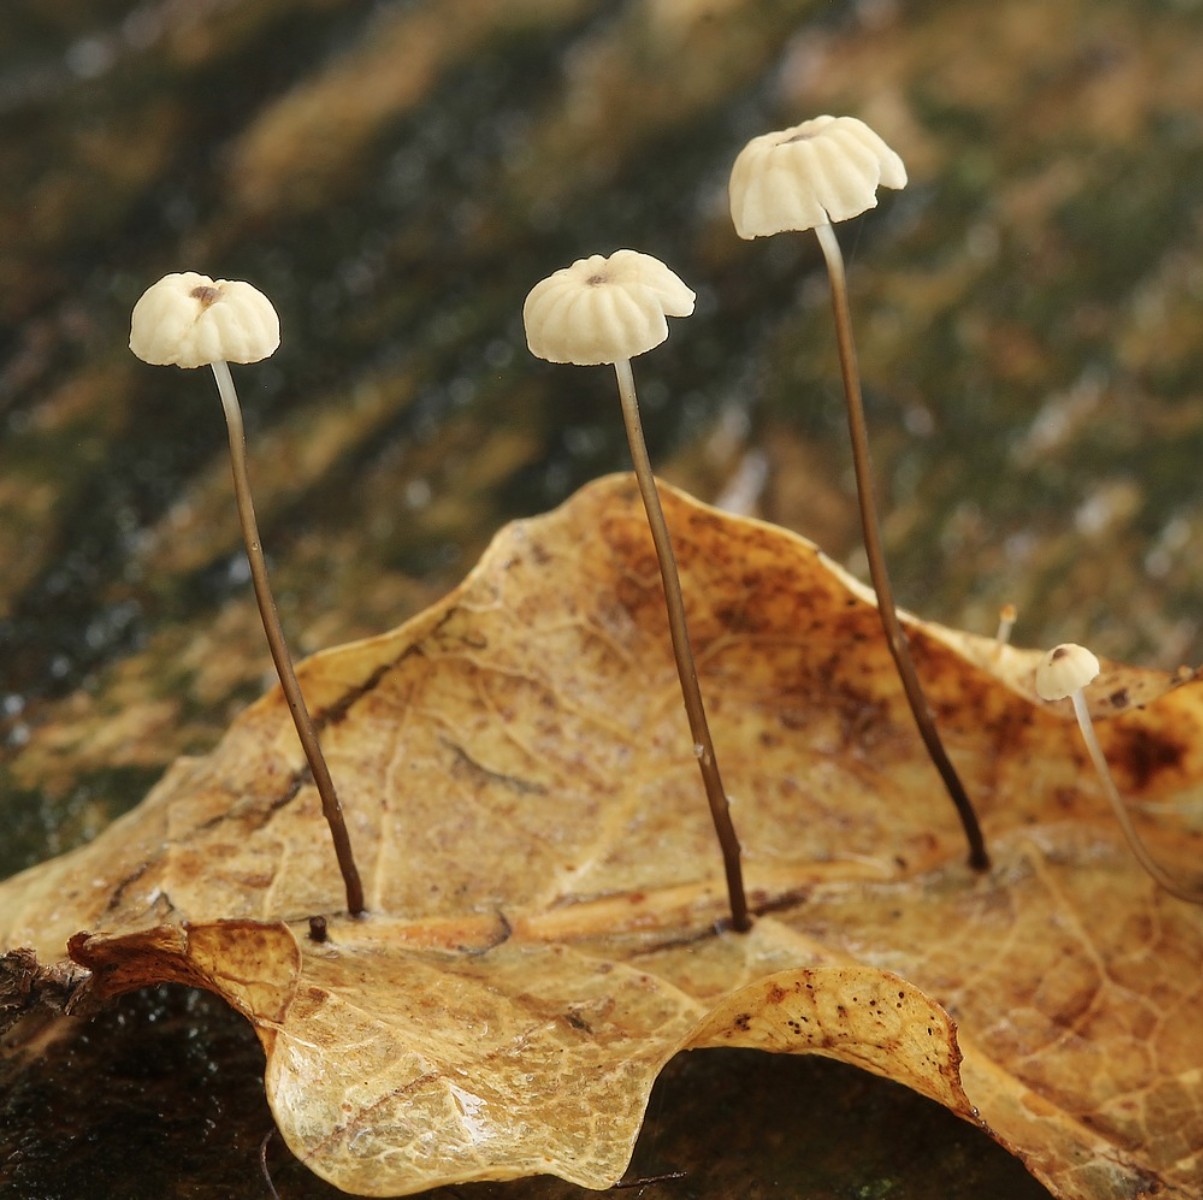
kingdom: Fungi
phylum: Basidiomycota
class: Agaricomycetes
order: Agaricales
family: Marasmiaceae
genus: Marasmius
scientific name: Marasmius bulliardii
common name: furet bruskhat
